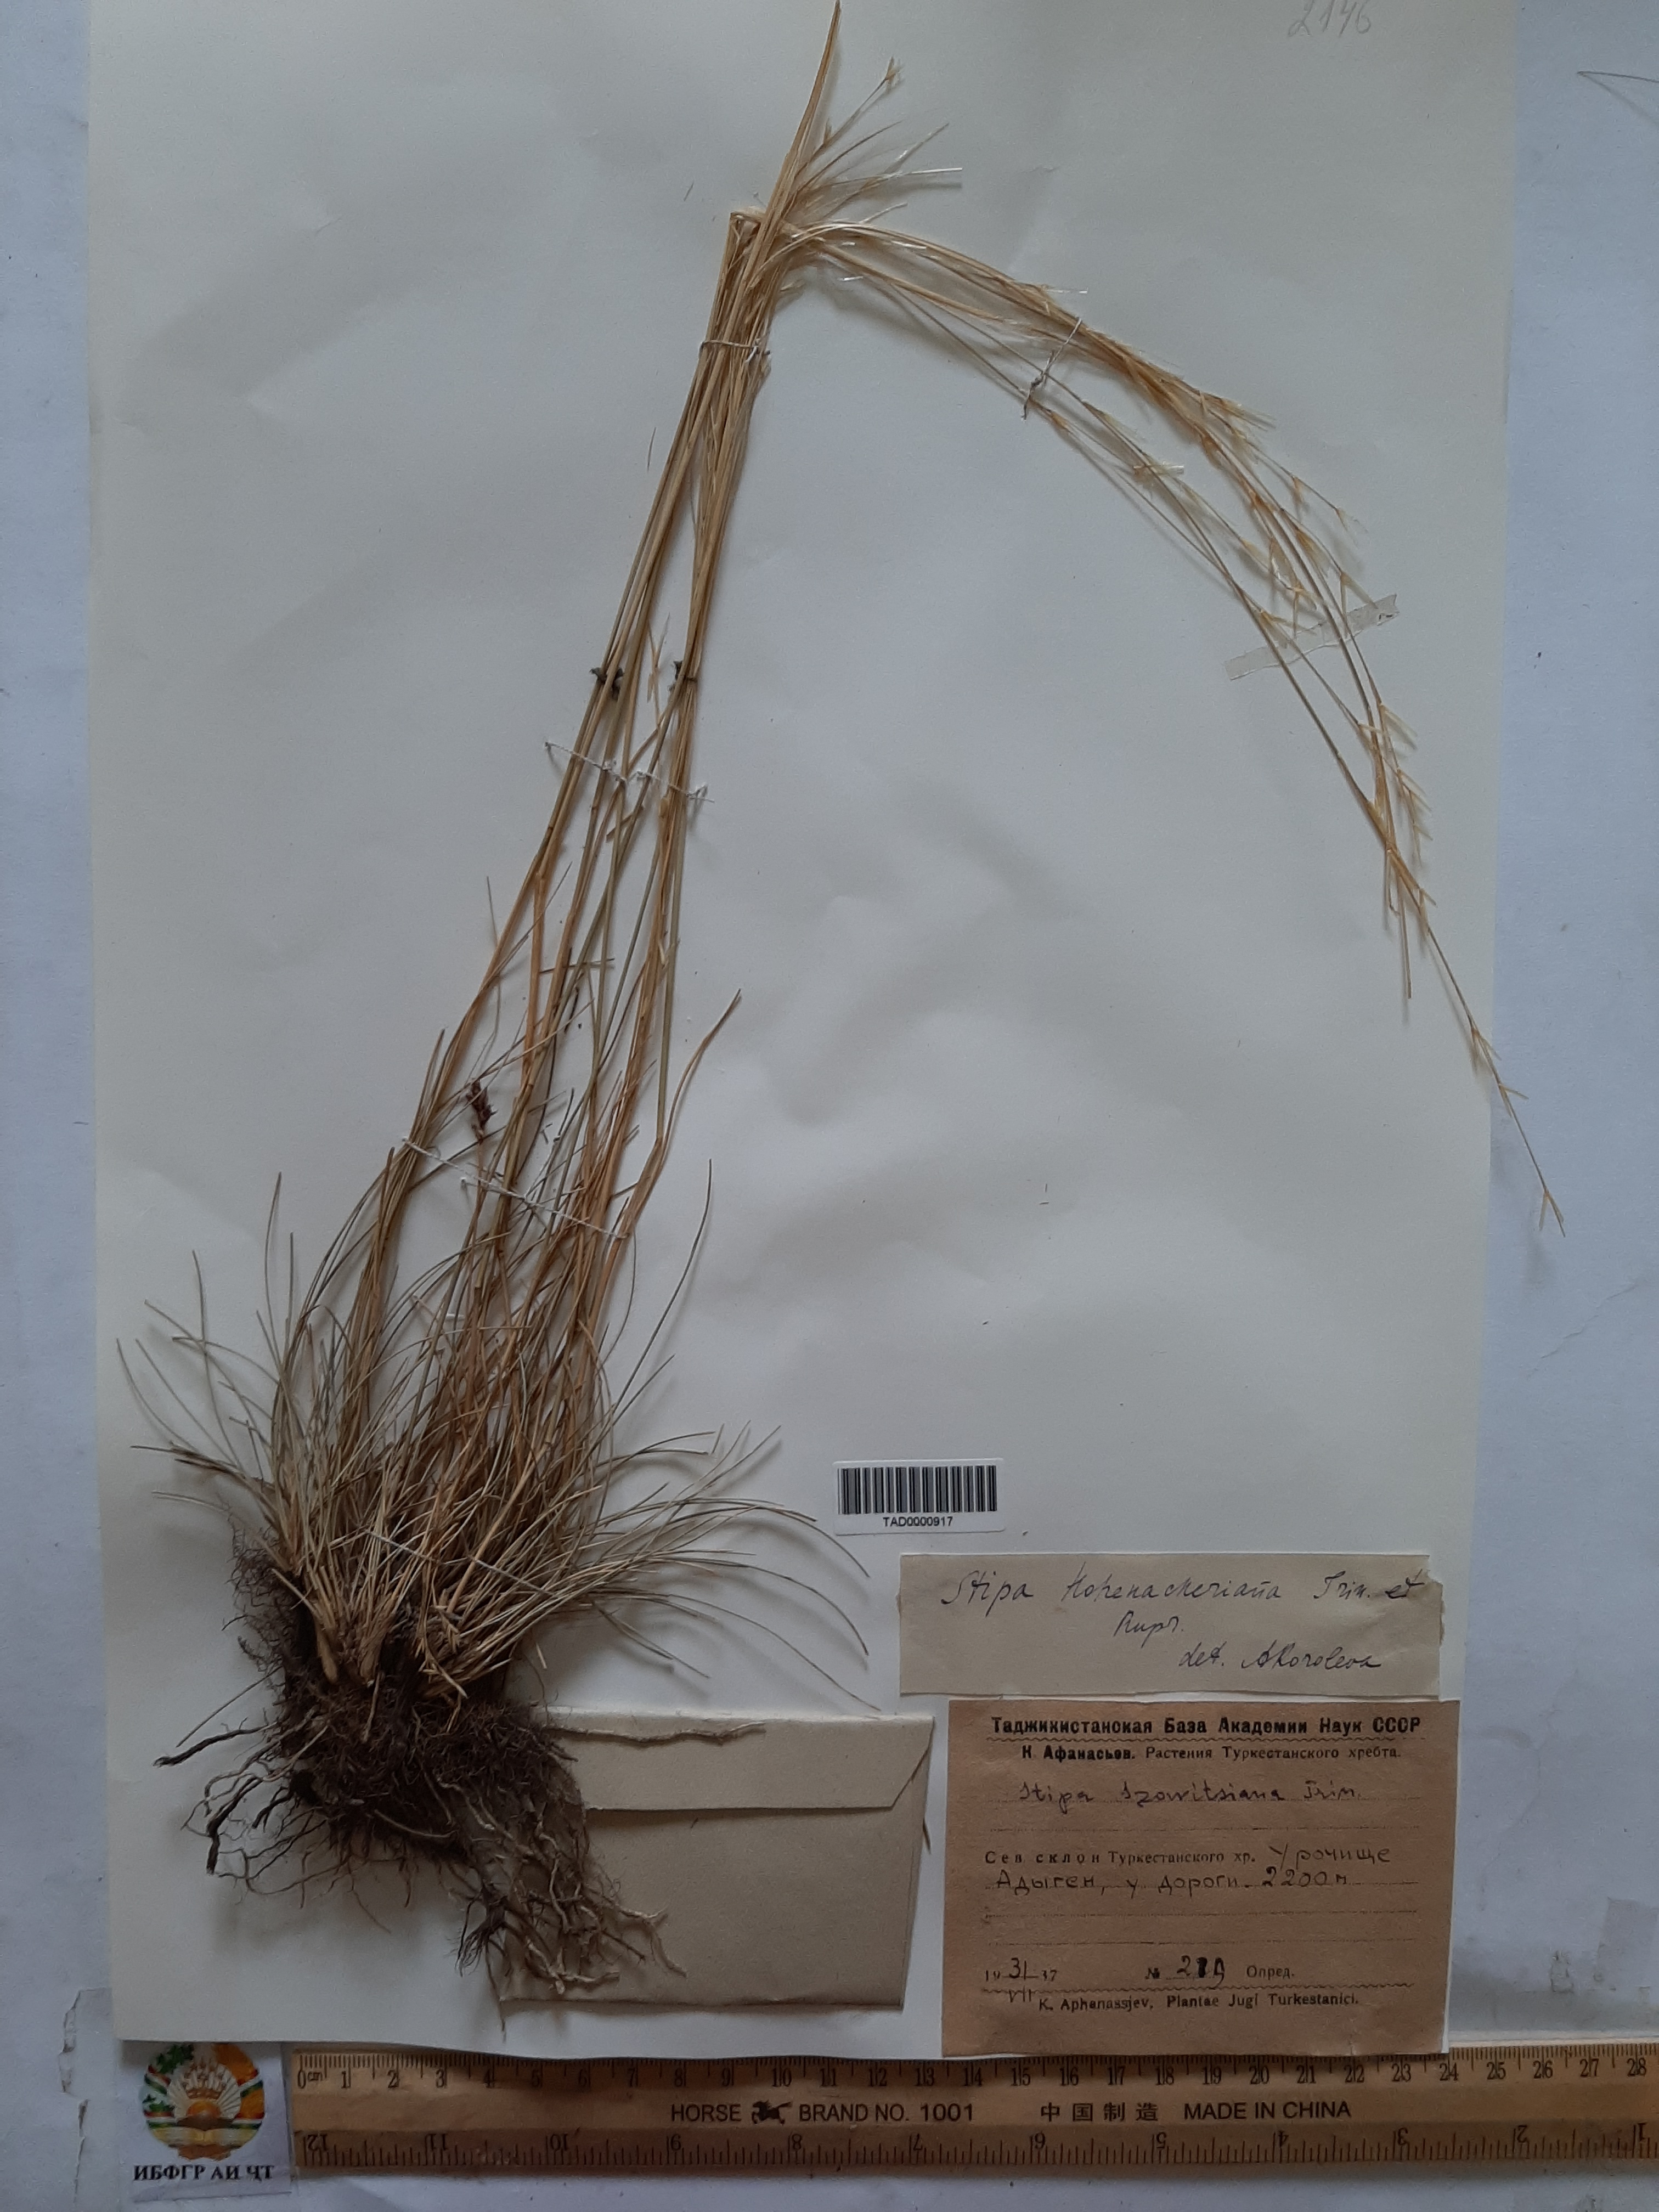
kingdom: Plantae
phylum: Tracheophyta
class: Liliopsida
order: Poales
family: Poaceae
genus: Stipa
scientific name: Stipa hohenackeriana
